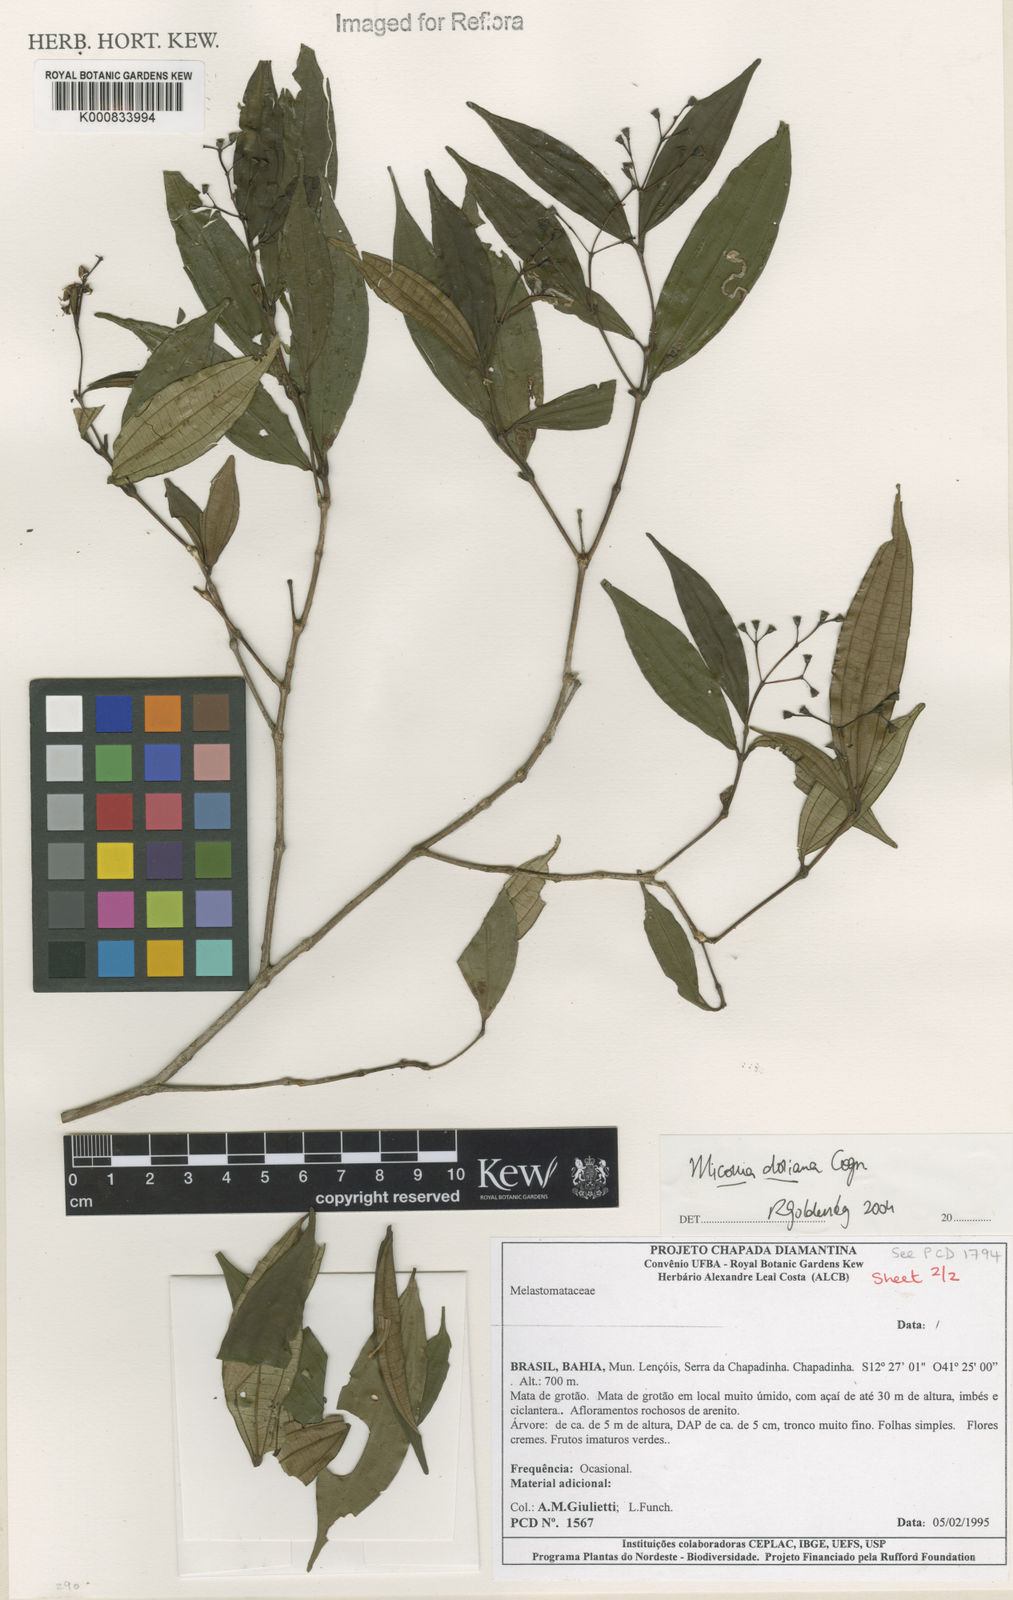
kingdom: Plantae
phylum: Tracheophyta
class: Magnoliopsida
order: Myrtales
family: Melastomataceae
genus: Miconia
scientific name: Miconia doriana
